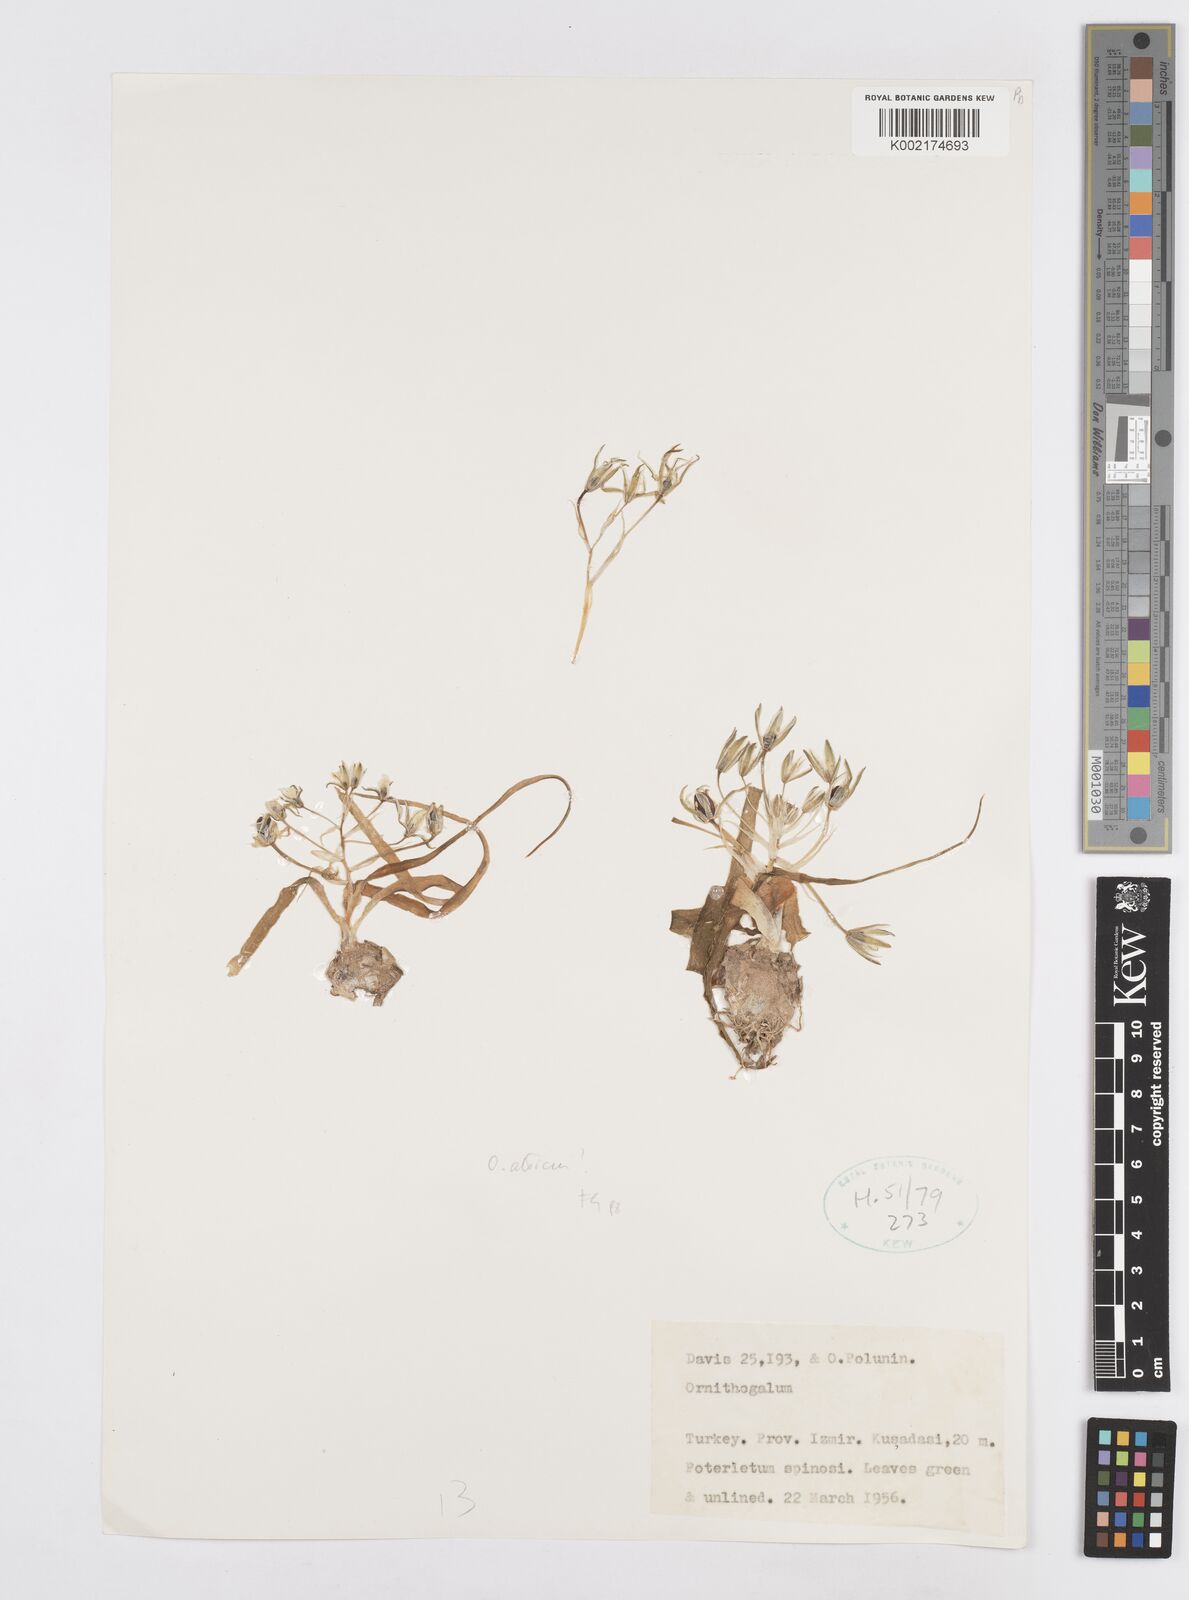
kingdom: Plantae
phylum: Tracheophyta
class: Liliopsida
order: Asparagales
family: Asparagaceae
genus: Ornithogalum
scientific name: Ornithogalum atticum
